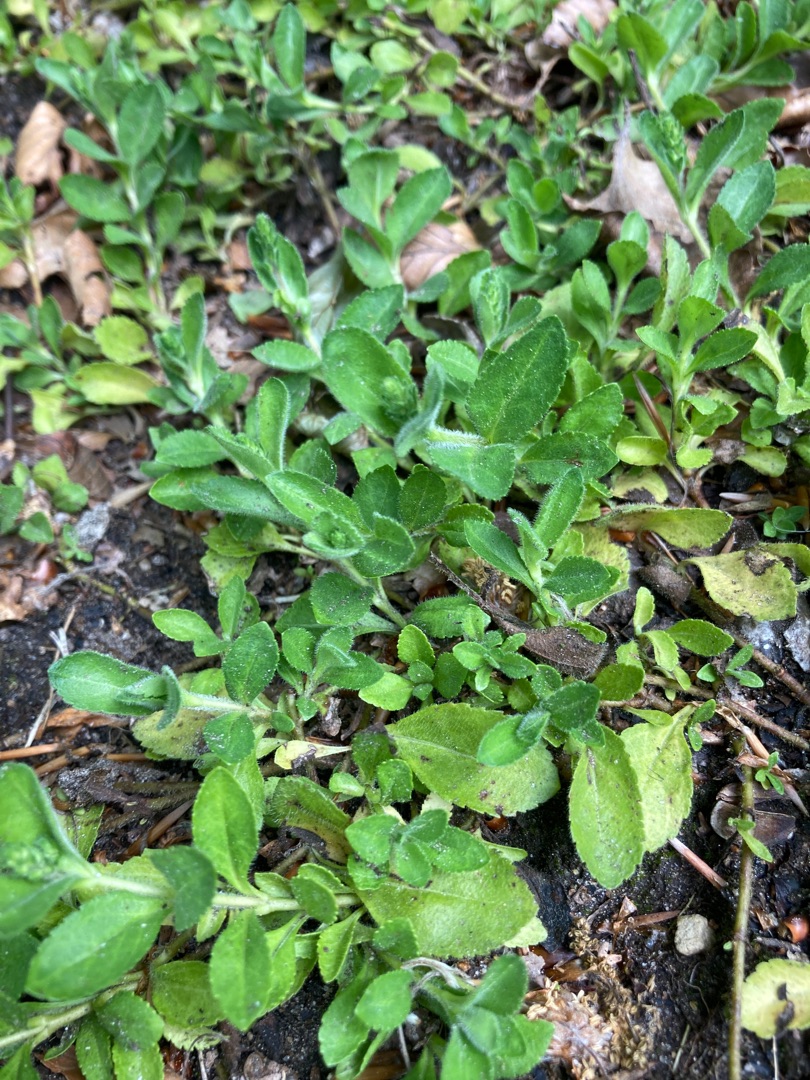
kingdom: Plantae
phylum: Tracheophyta
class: Magnoliopsida
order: Lamiales
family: Plantaginaceae
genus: Veronica
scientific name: Veronica officinalis
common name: Læge-ærenpris
